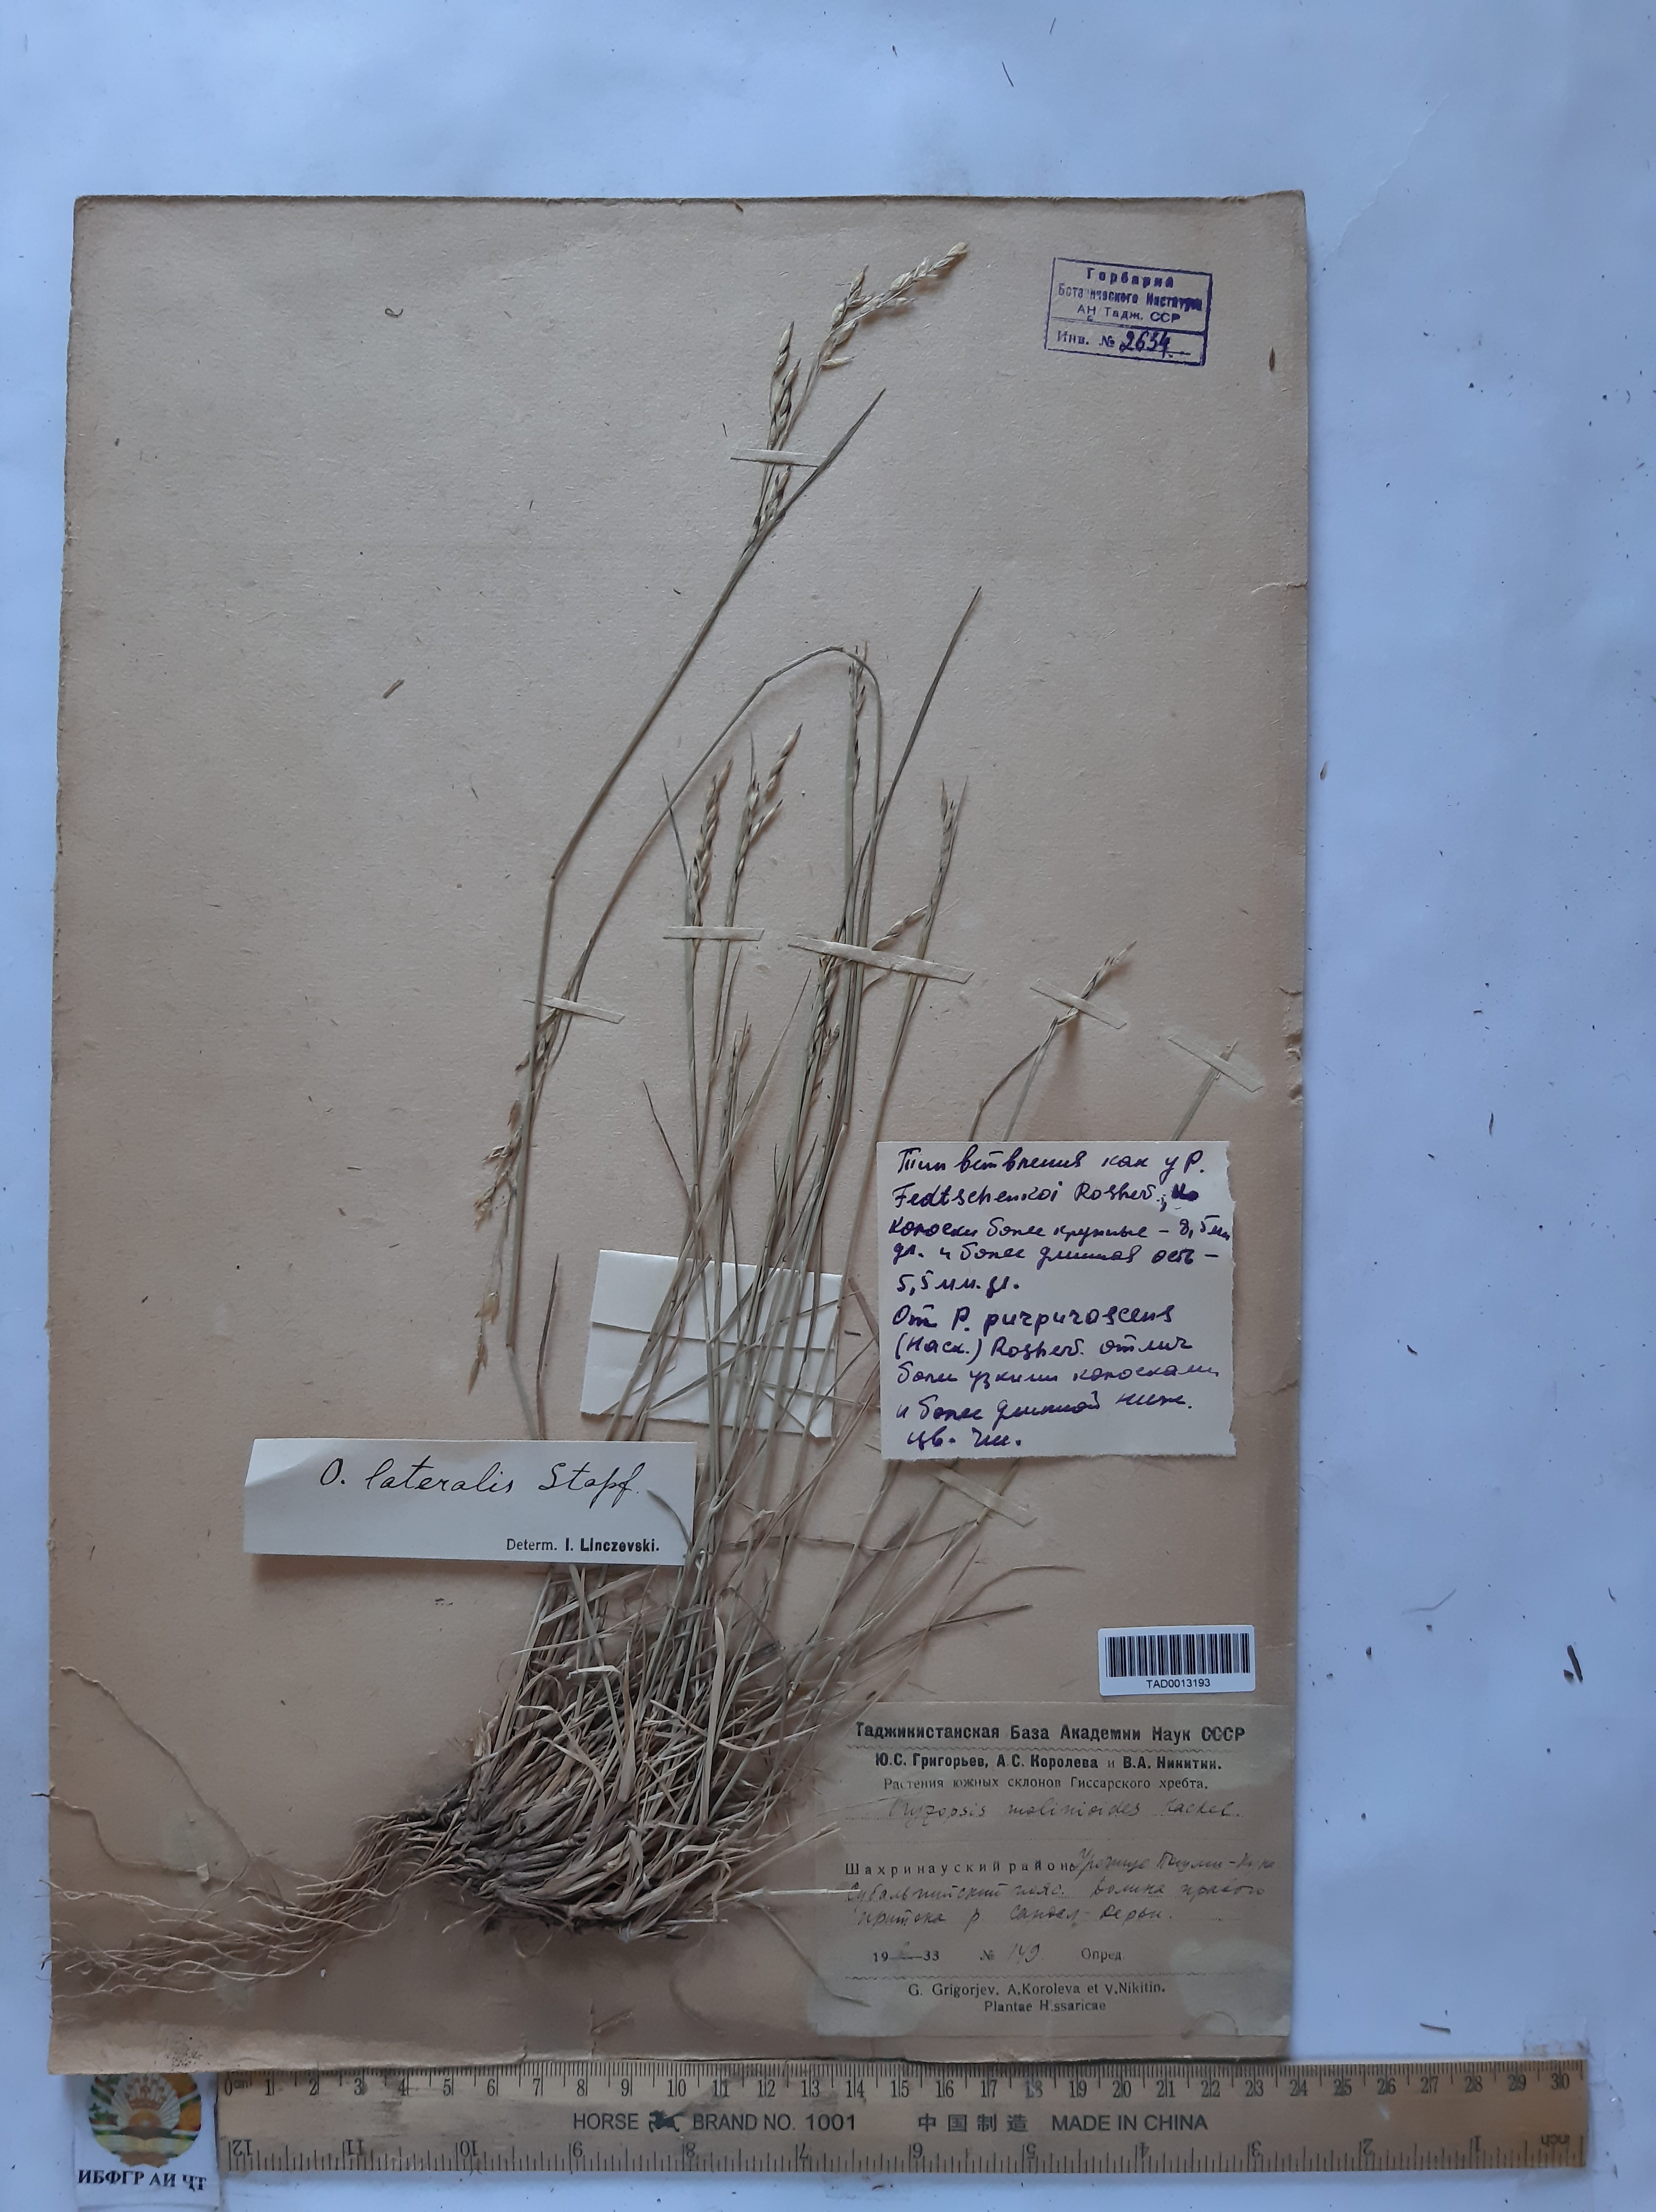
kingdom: Plantae
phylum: Tracheophyta
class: Liliopsida
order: Poales
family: Poaceae
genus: Piptatherum
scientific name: Piptatherum laterale
